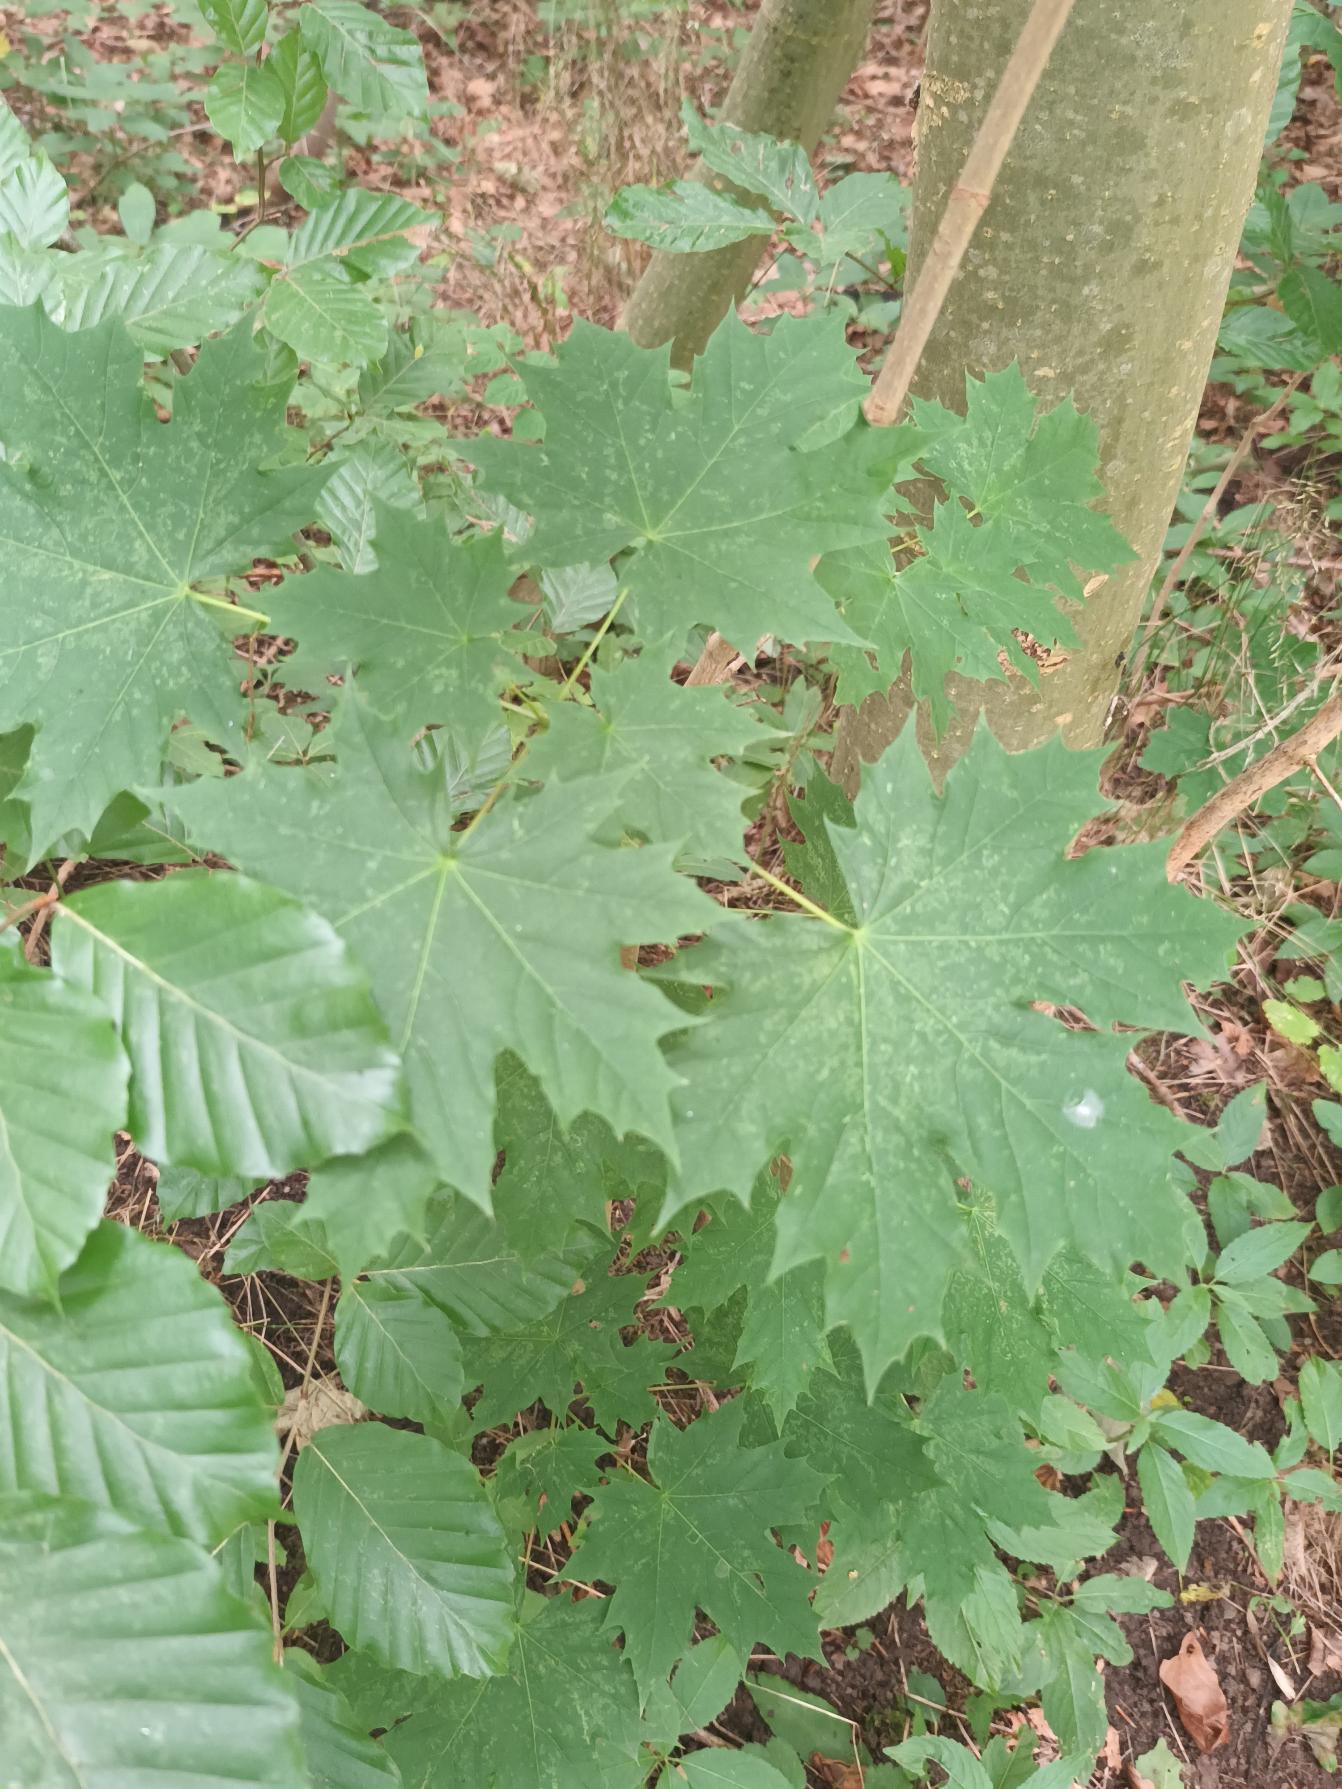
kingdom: Plantae
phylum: Tracheophyta
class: Magnoliopsida
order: Sapindales
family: Sapindaceae
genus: Acer
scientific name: Acer platanoides
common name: Spids-løn
